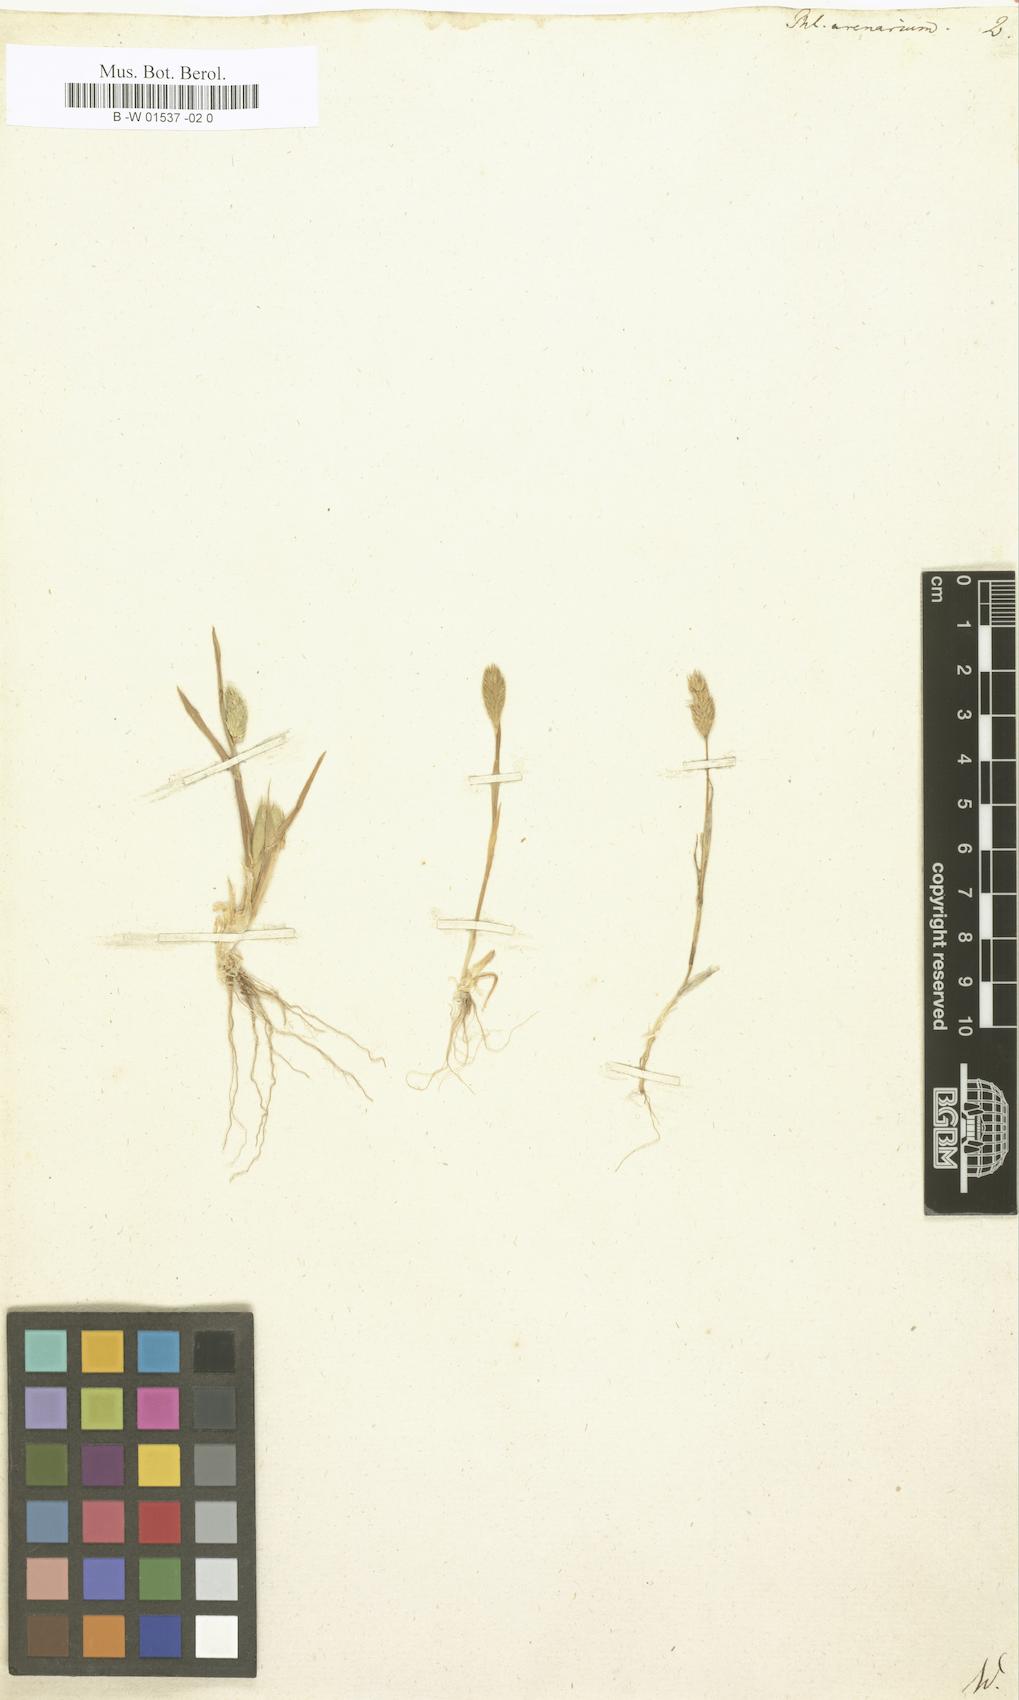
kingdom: Plantae
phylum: Tracheophyta
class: Liliopsida
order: Poales
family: Poaceae
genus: Phleum
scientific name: Phleum arenarium
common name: Sand cat's-tail
